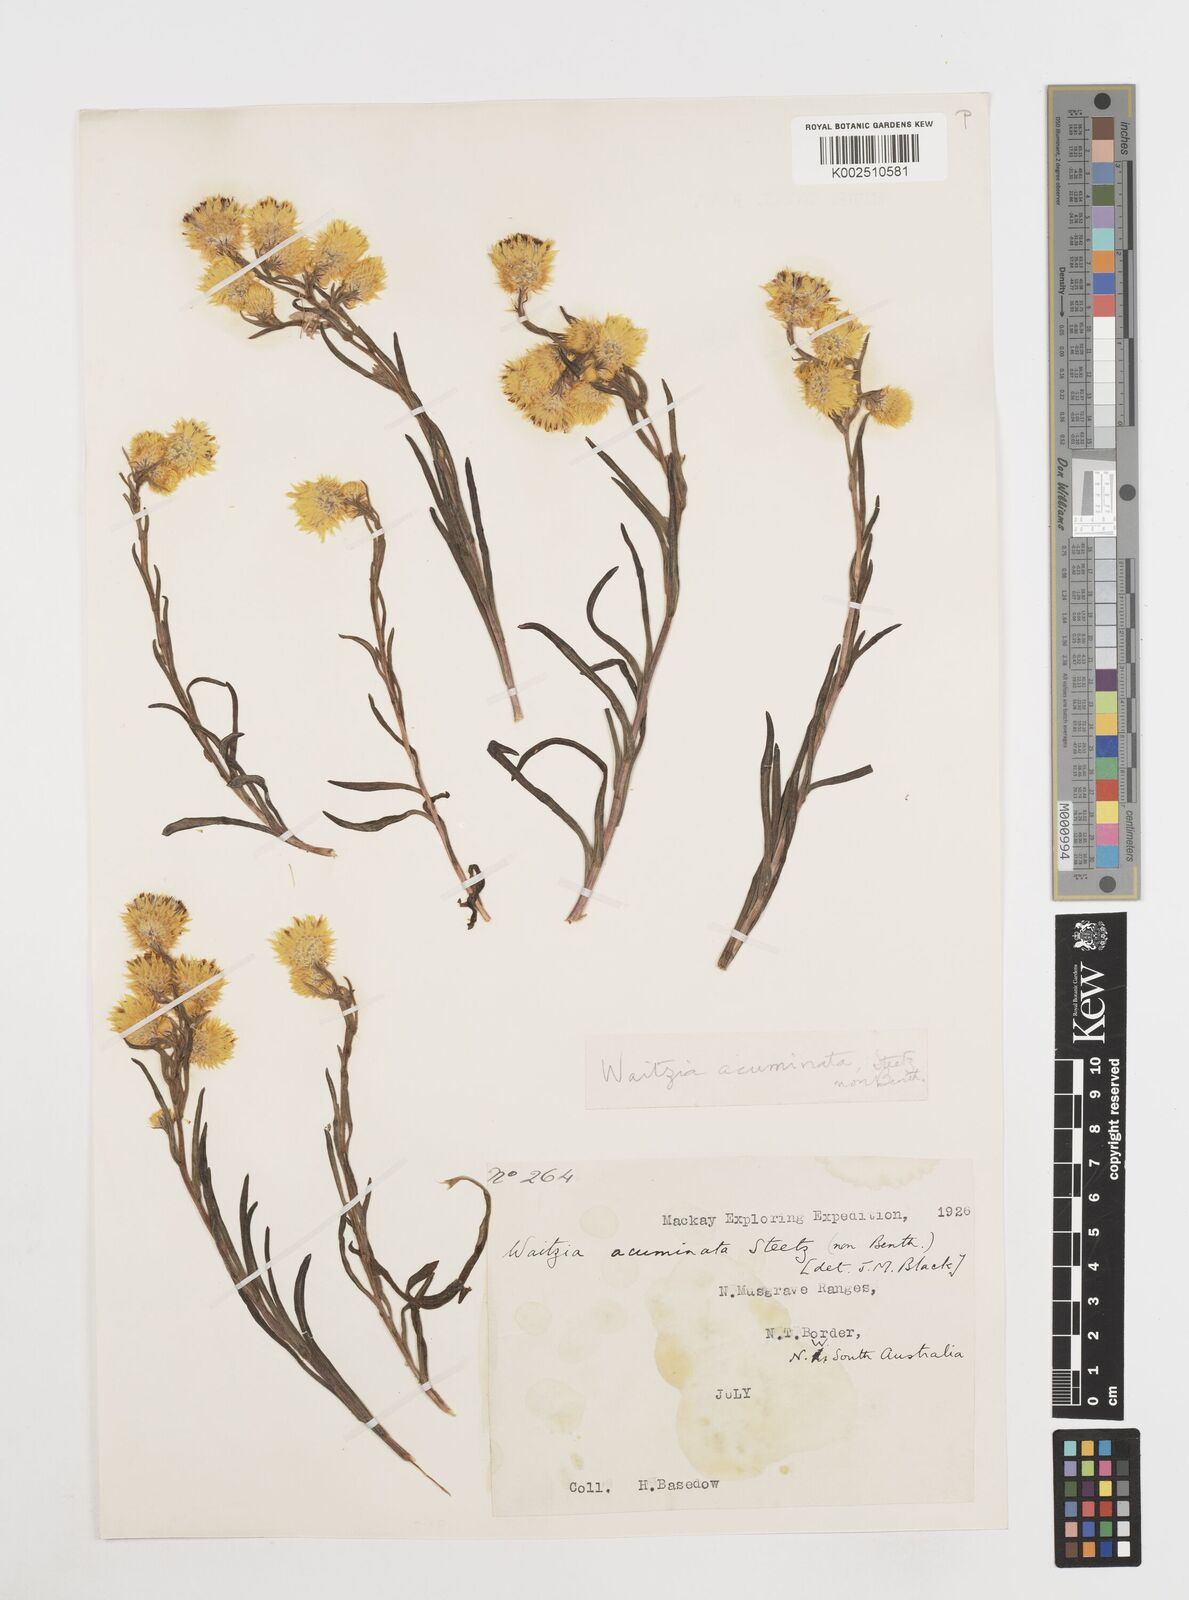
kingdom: Plantae
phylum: Tracheophyta
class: Magnoliopsida
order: Asterales
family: Asteraceae
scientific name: Asteraceae
